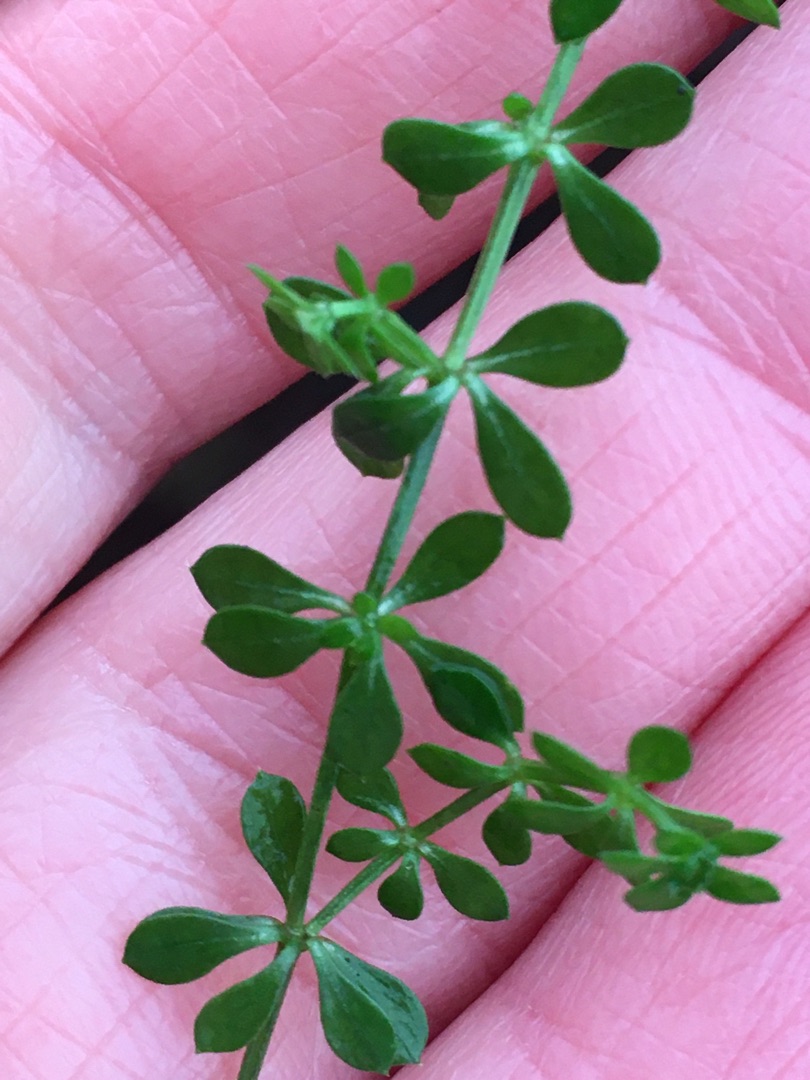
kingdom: Plantae
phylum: Tracheophyta
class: Magnoliopsida
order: Gentianales
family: Rubiaceae
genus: Galium
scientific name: Galium saxatile
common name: Lyng-snerre
